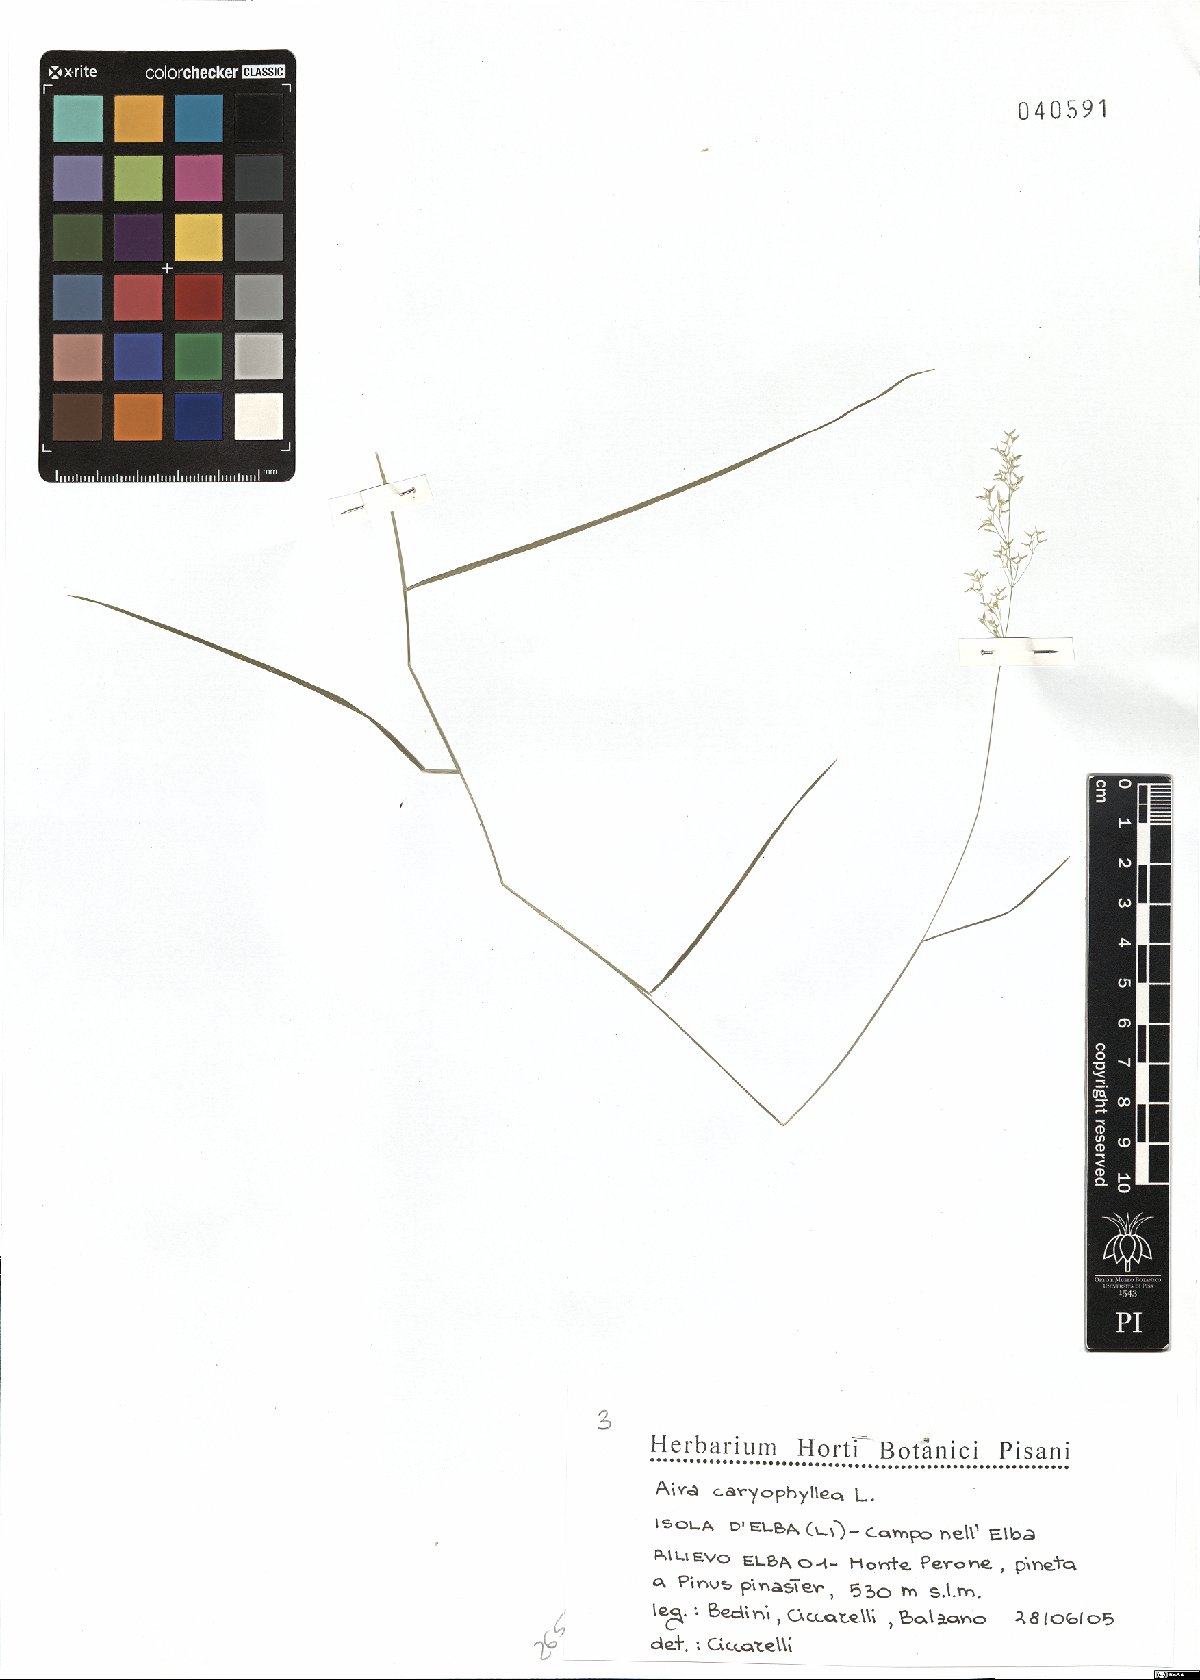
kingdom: Plantae
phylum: Tracheophyta
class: Liliopsida
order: Poales
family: Poaceae
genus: Aira
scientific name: Aira caryophyllea
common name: Silver hairgrass
